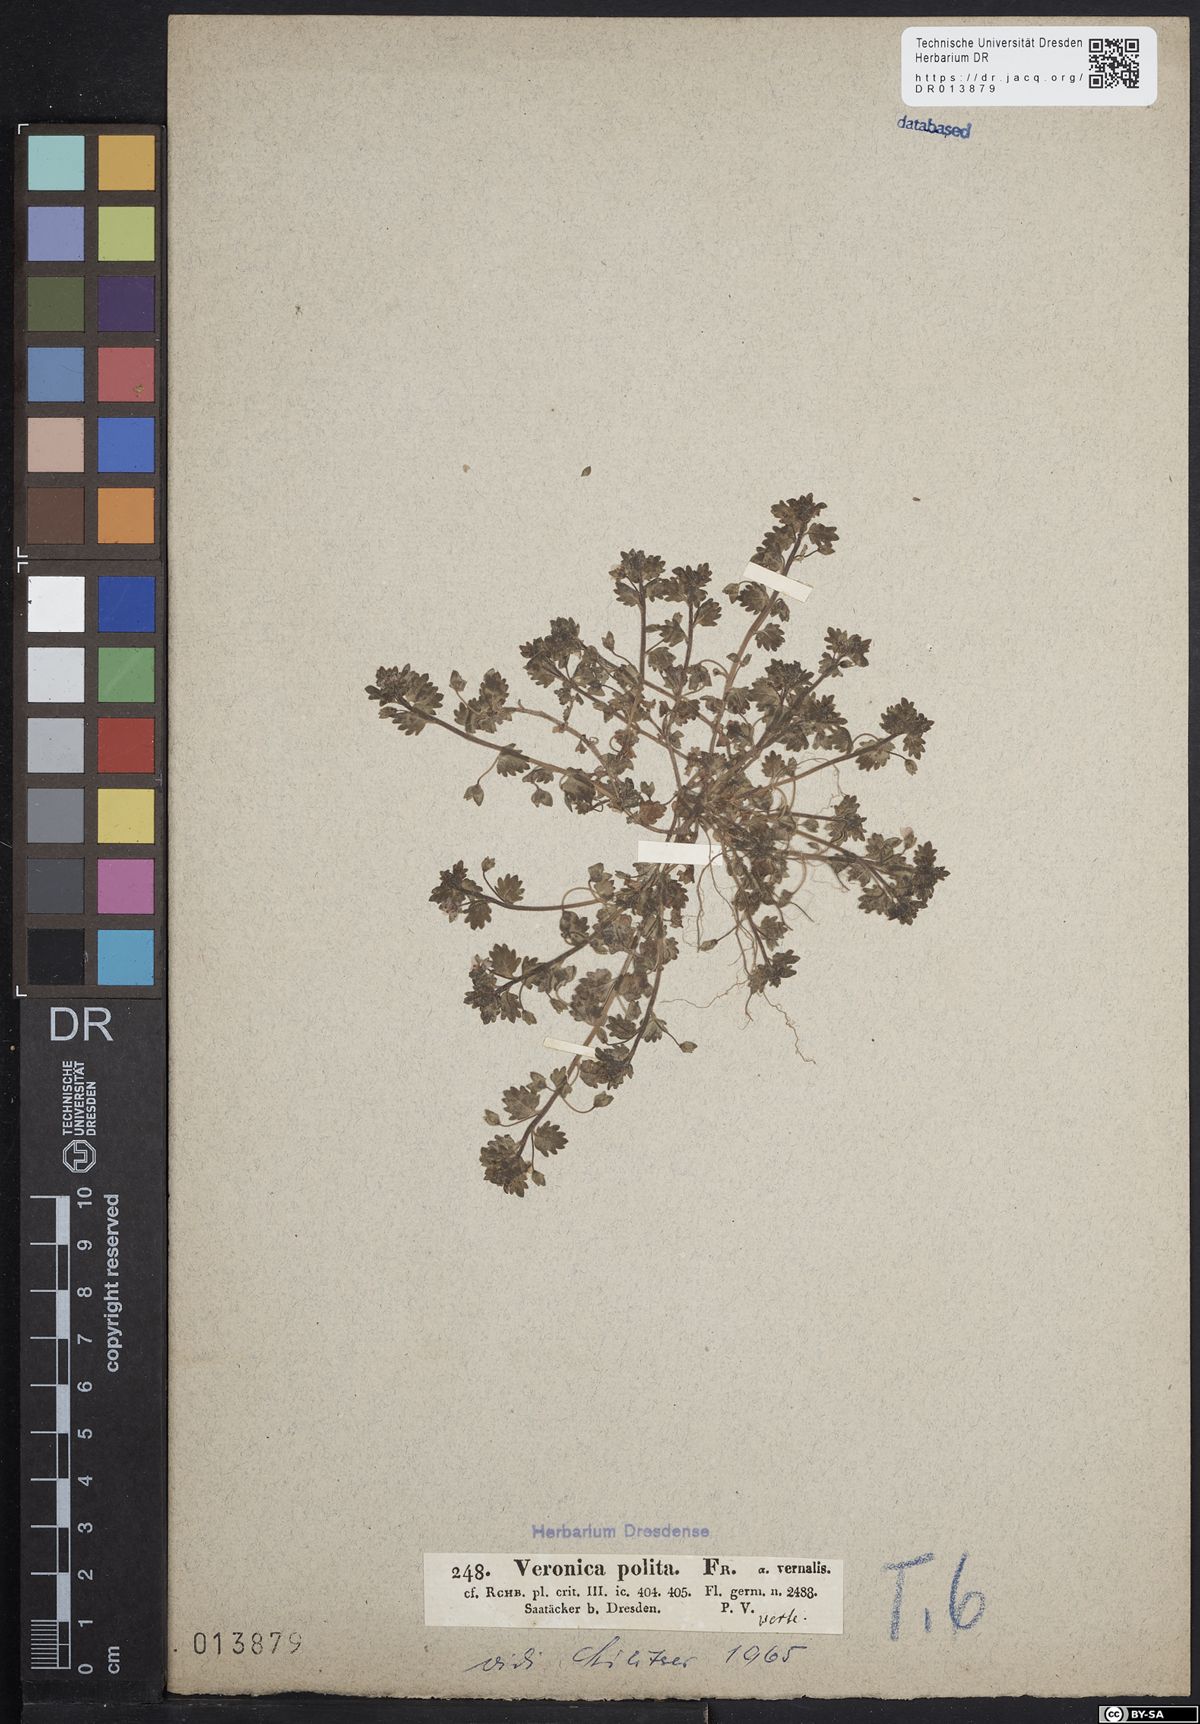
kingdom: Plantae
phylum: Tracheophyta
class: Magnoliopsida
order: Lamiales
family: Plantaginaceae
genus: Veronica
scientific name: Veronica polita
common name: Grey field-speedwell
